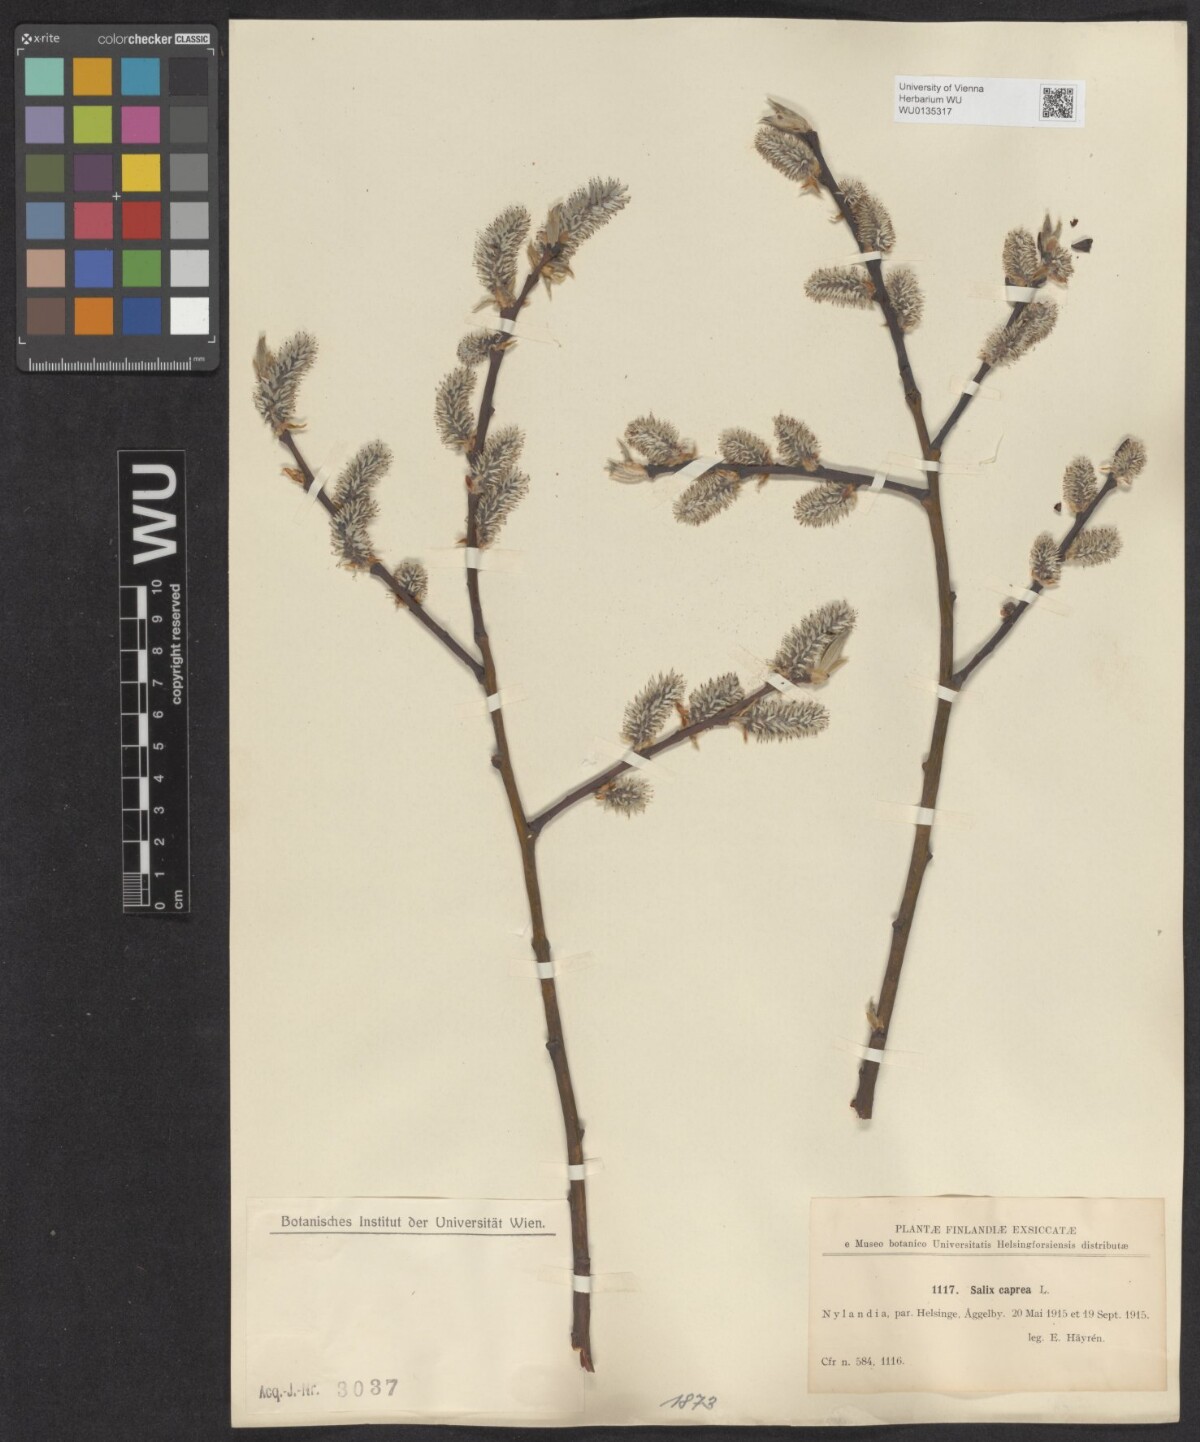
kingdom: Plantae
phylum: Tracheophyta
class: Magnoliopsida
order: Malpighiales
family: Salicaceae
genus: Salix
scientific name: Salix caprea
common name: Goat willow
